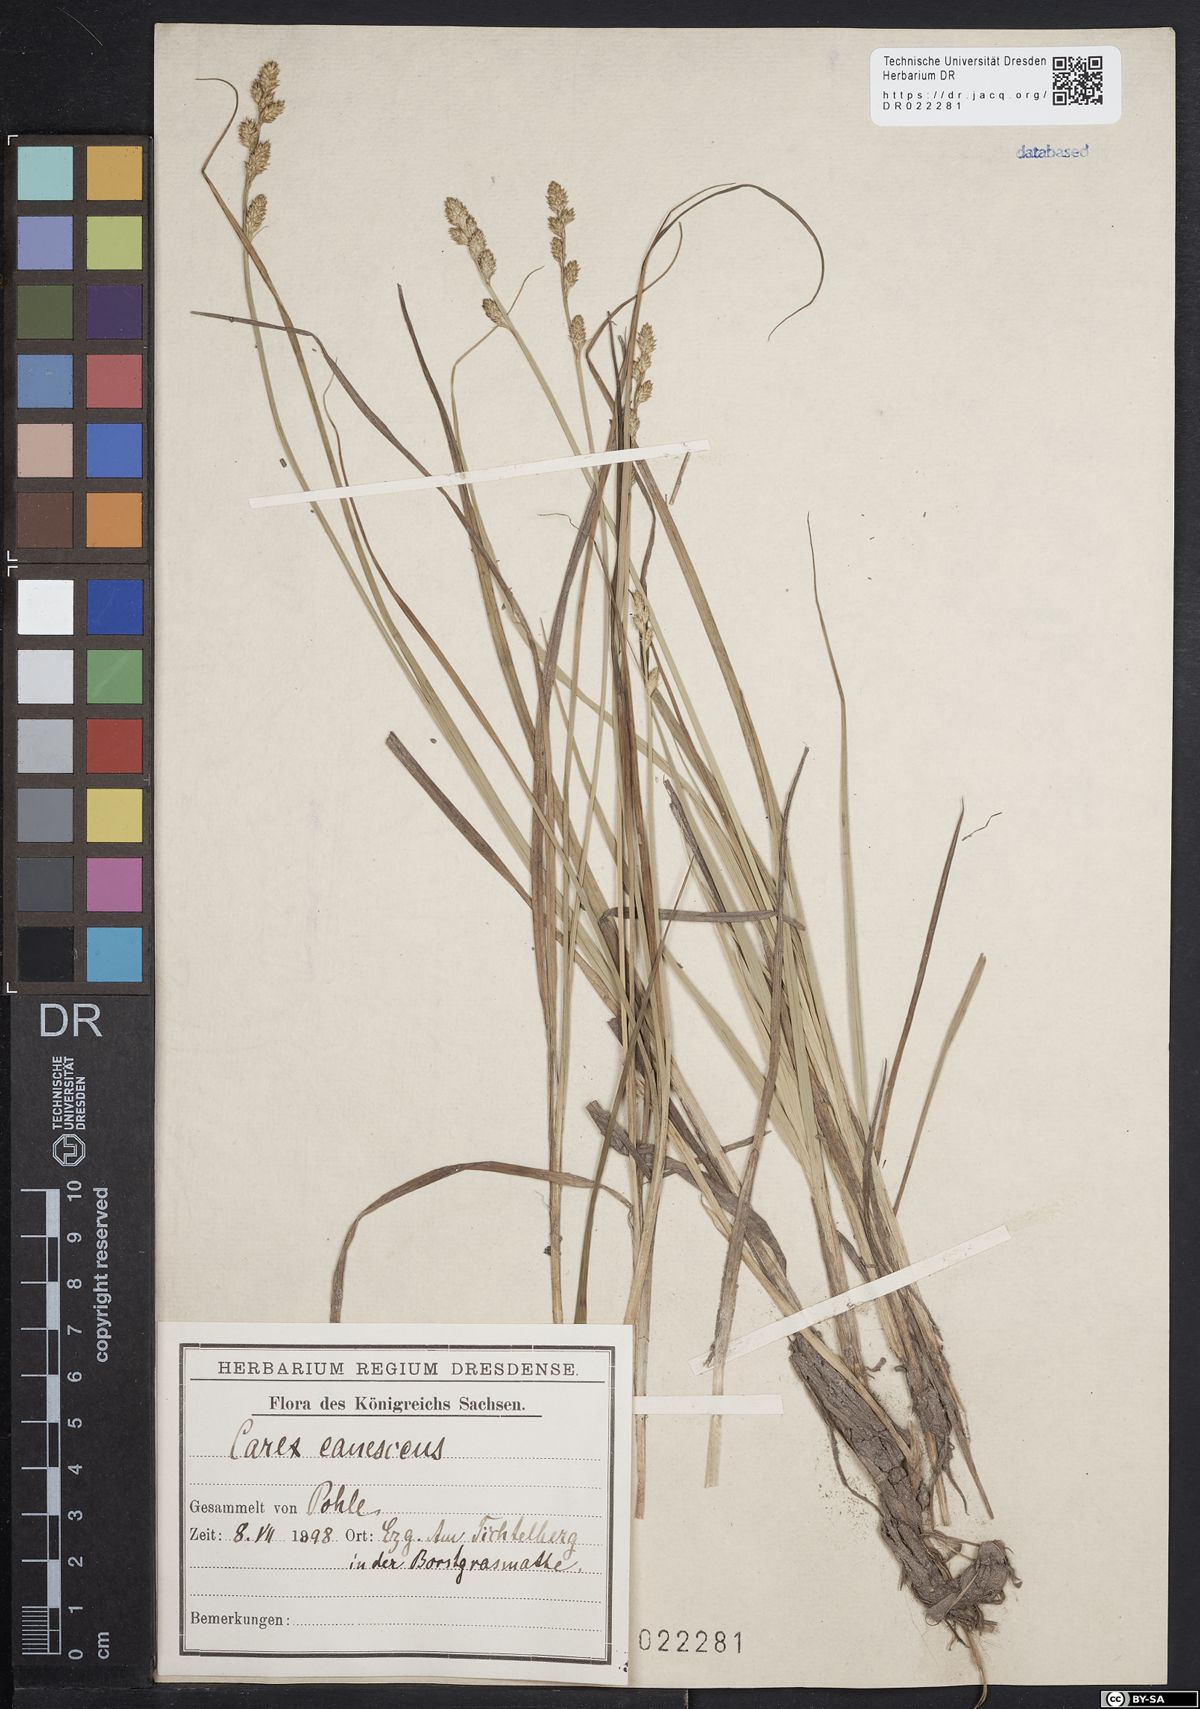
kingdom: Plantae
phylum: Tracheophyta
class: Liliopsida
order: Poales
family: Cyperaceae
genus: Carex
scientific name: Carex canescens
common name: White sedge
